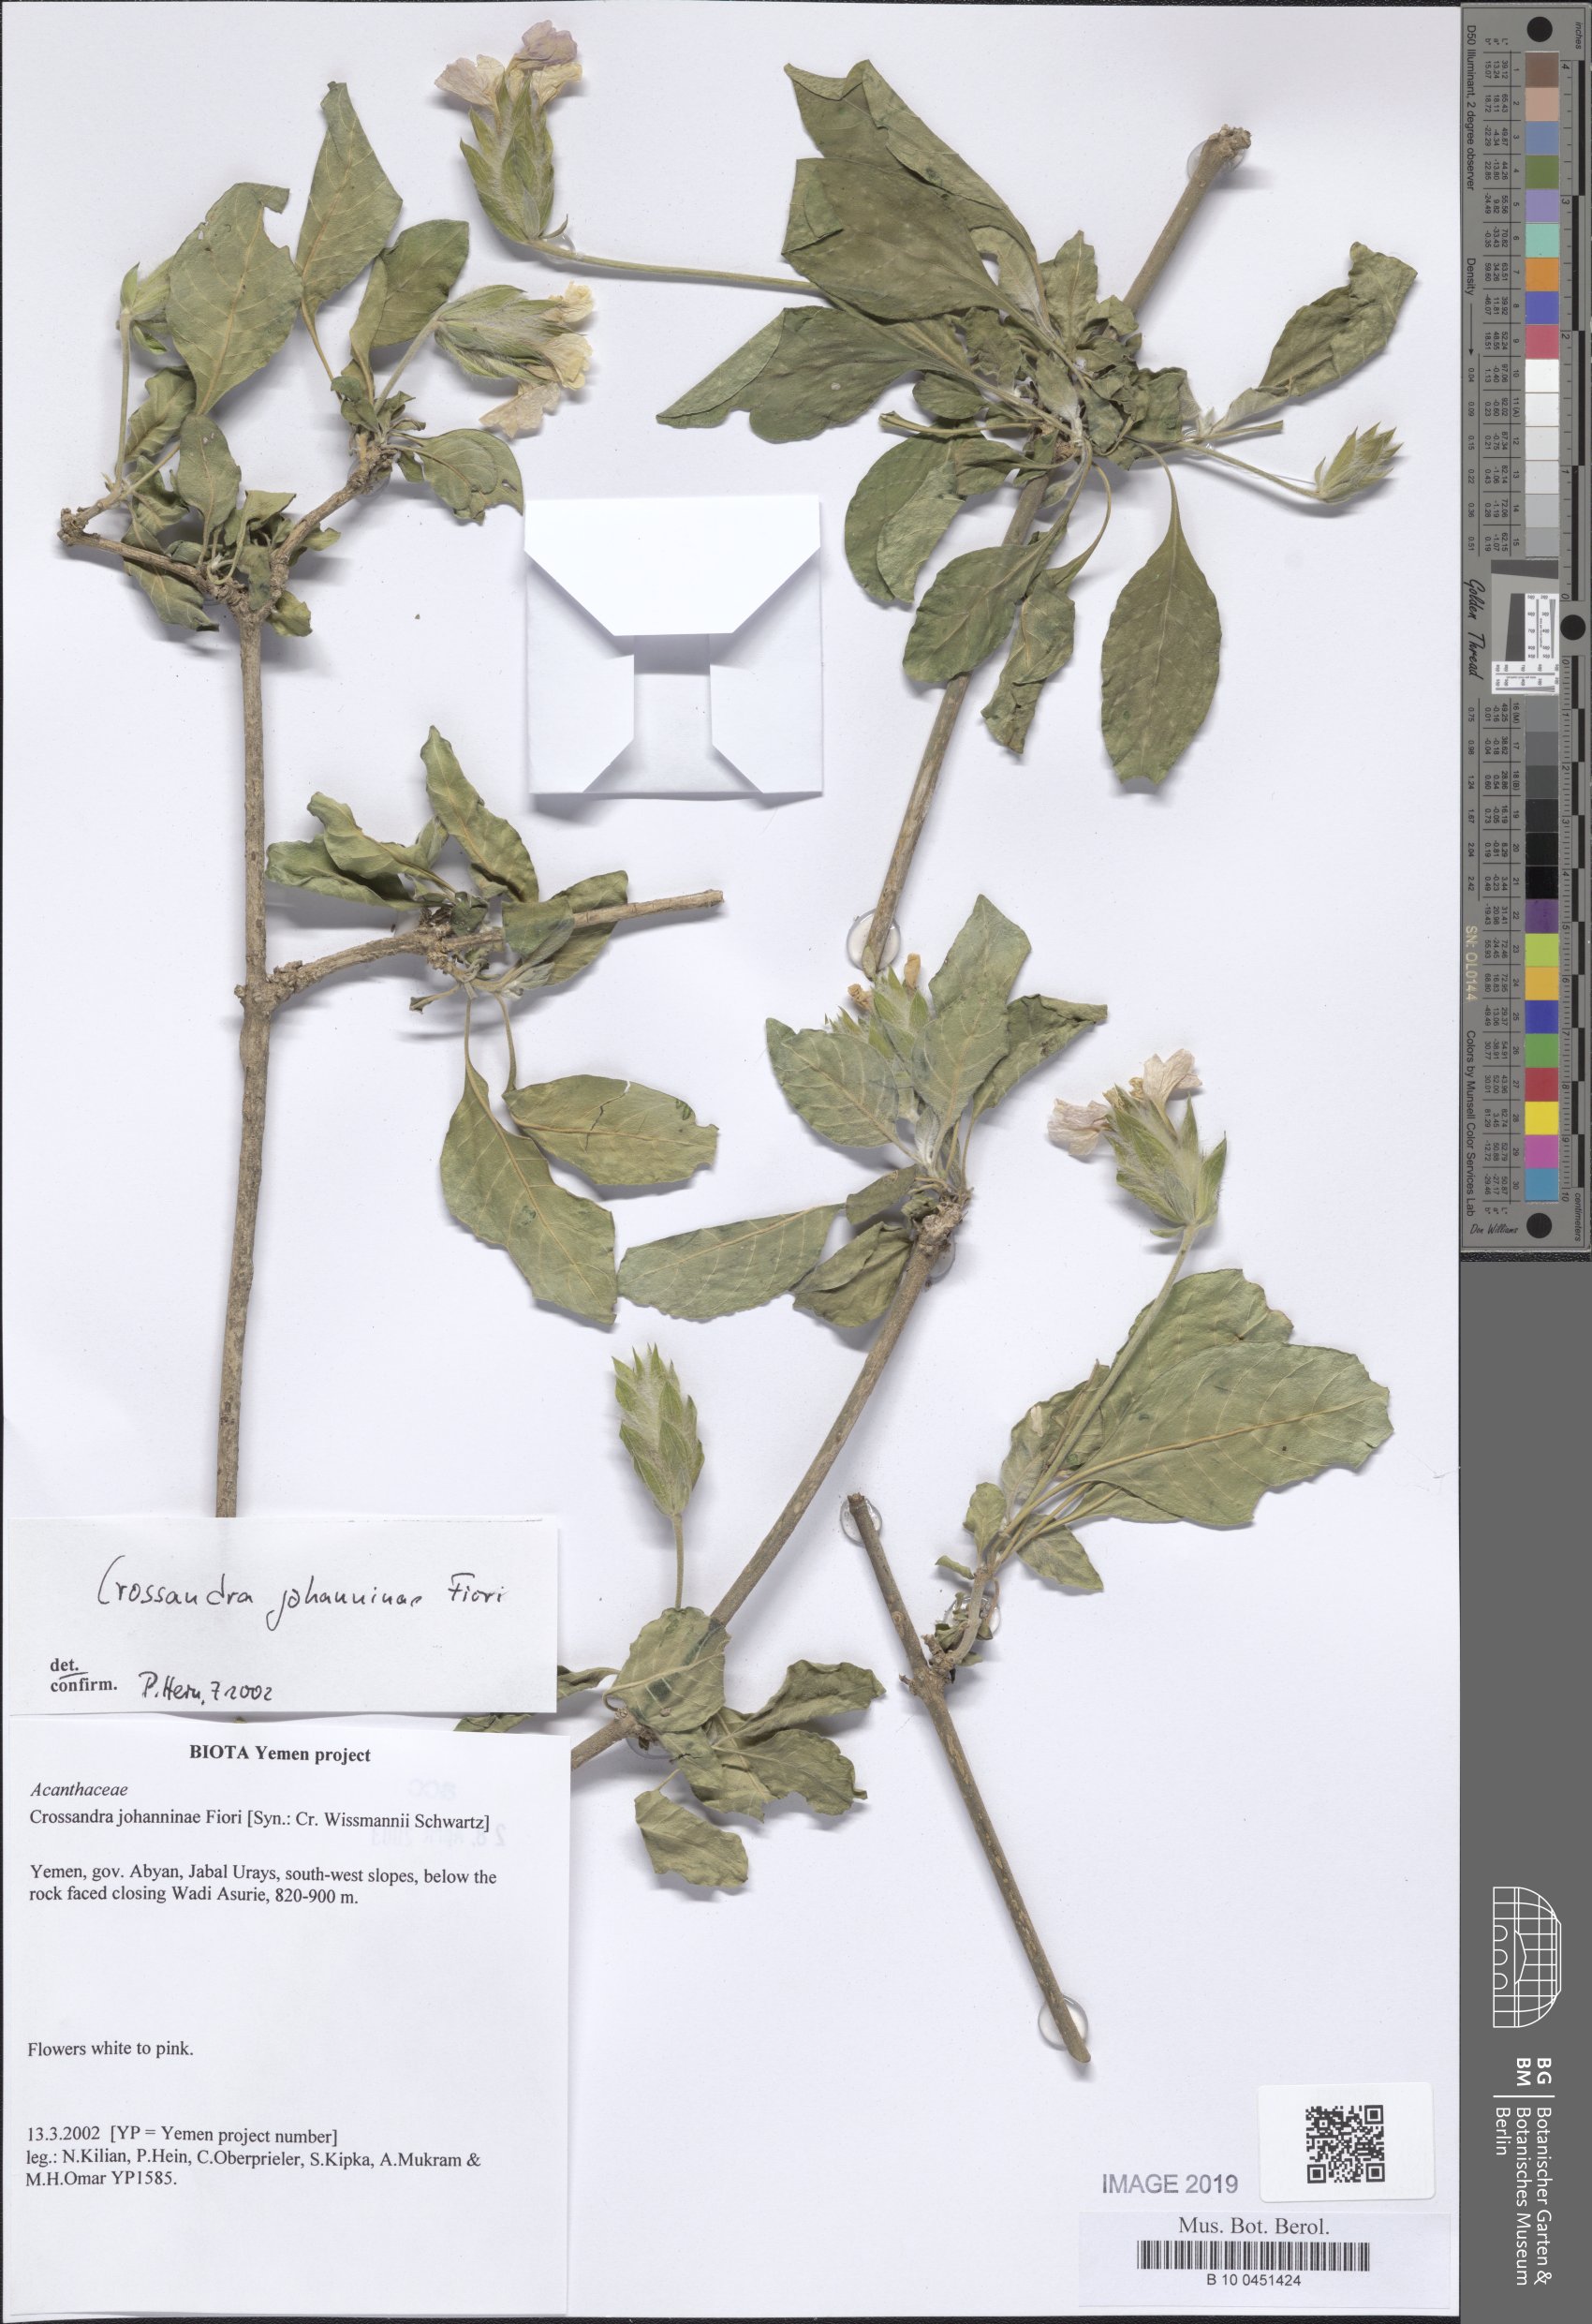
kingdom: Plantae
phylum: Tracheophyta
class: Magnoliopsida
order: Lamiales
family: Acanthaceae
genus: Crossandra
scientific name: Crossandra johanninae
